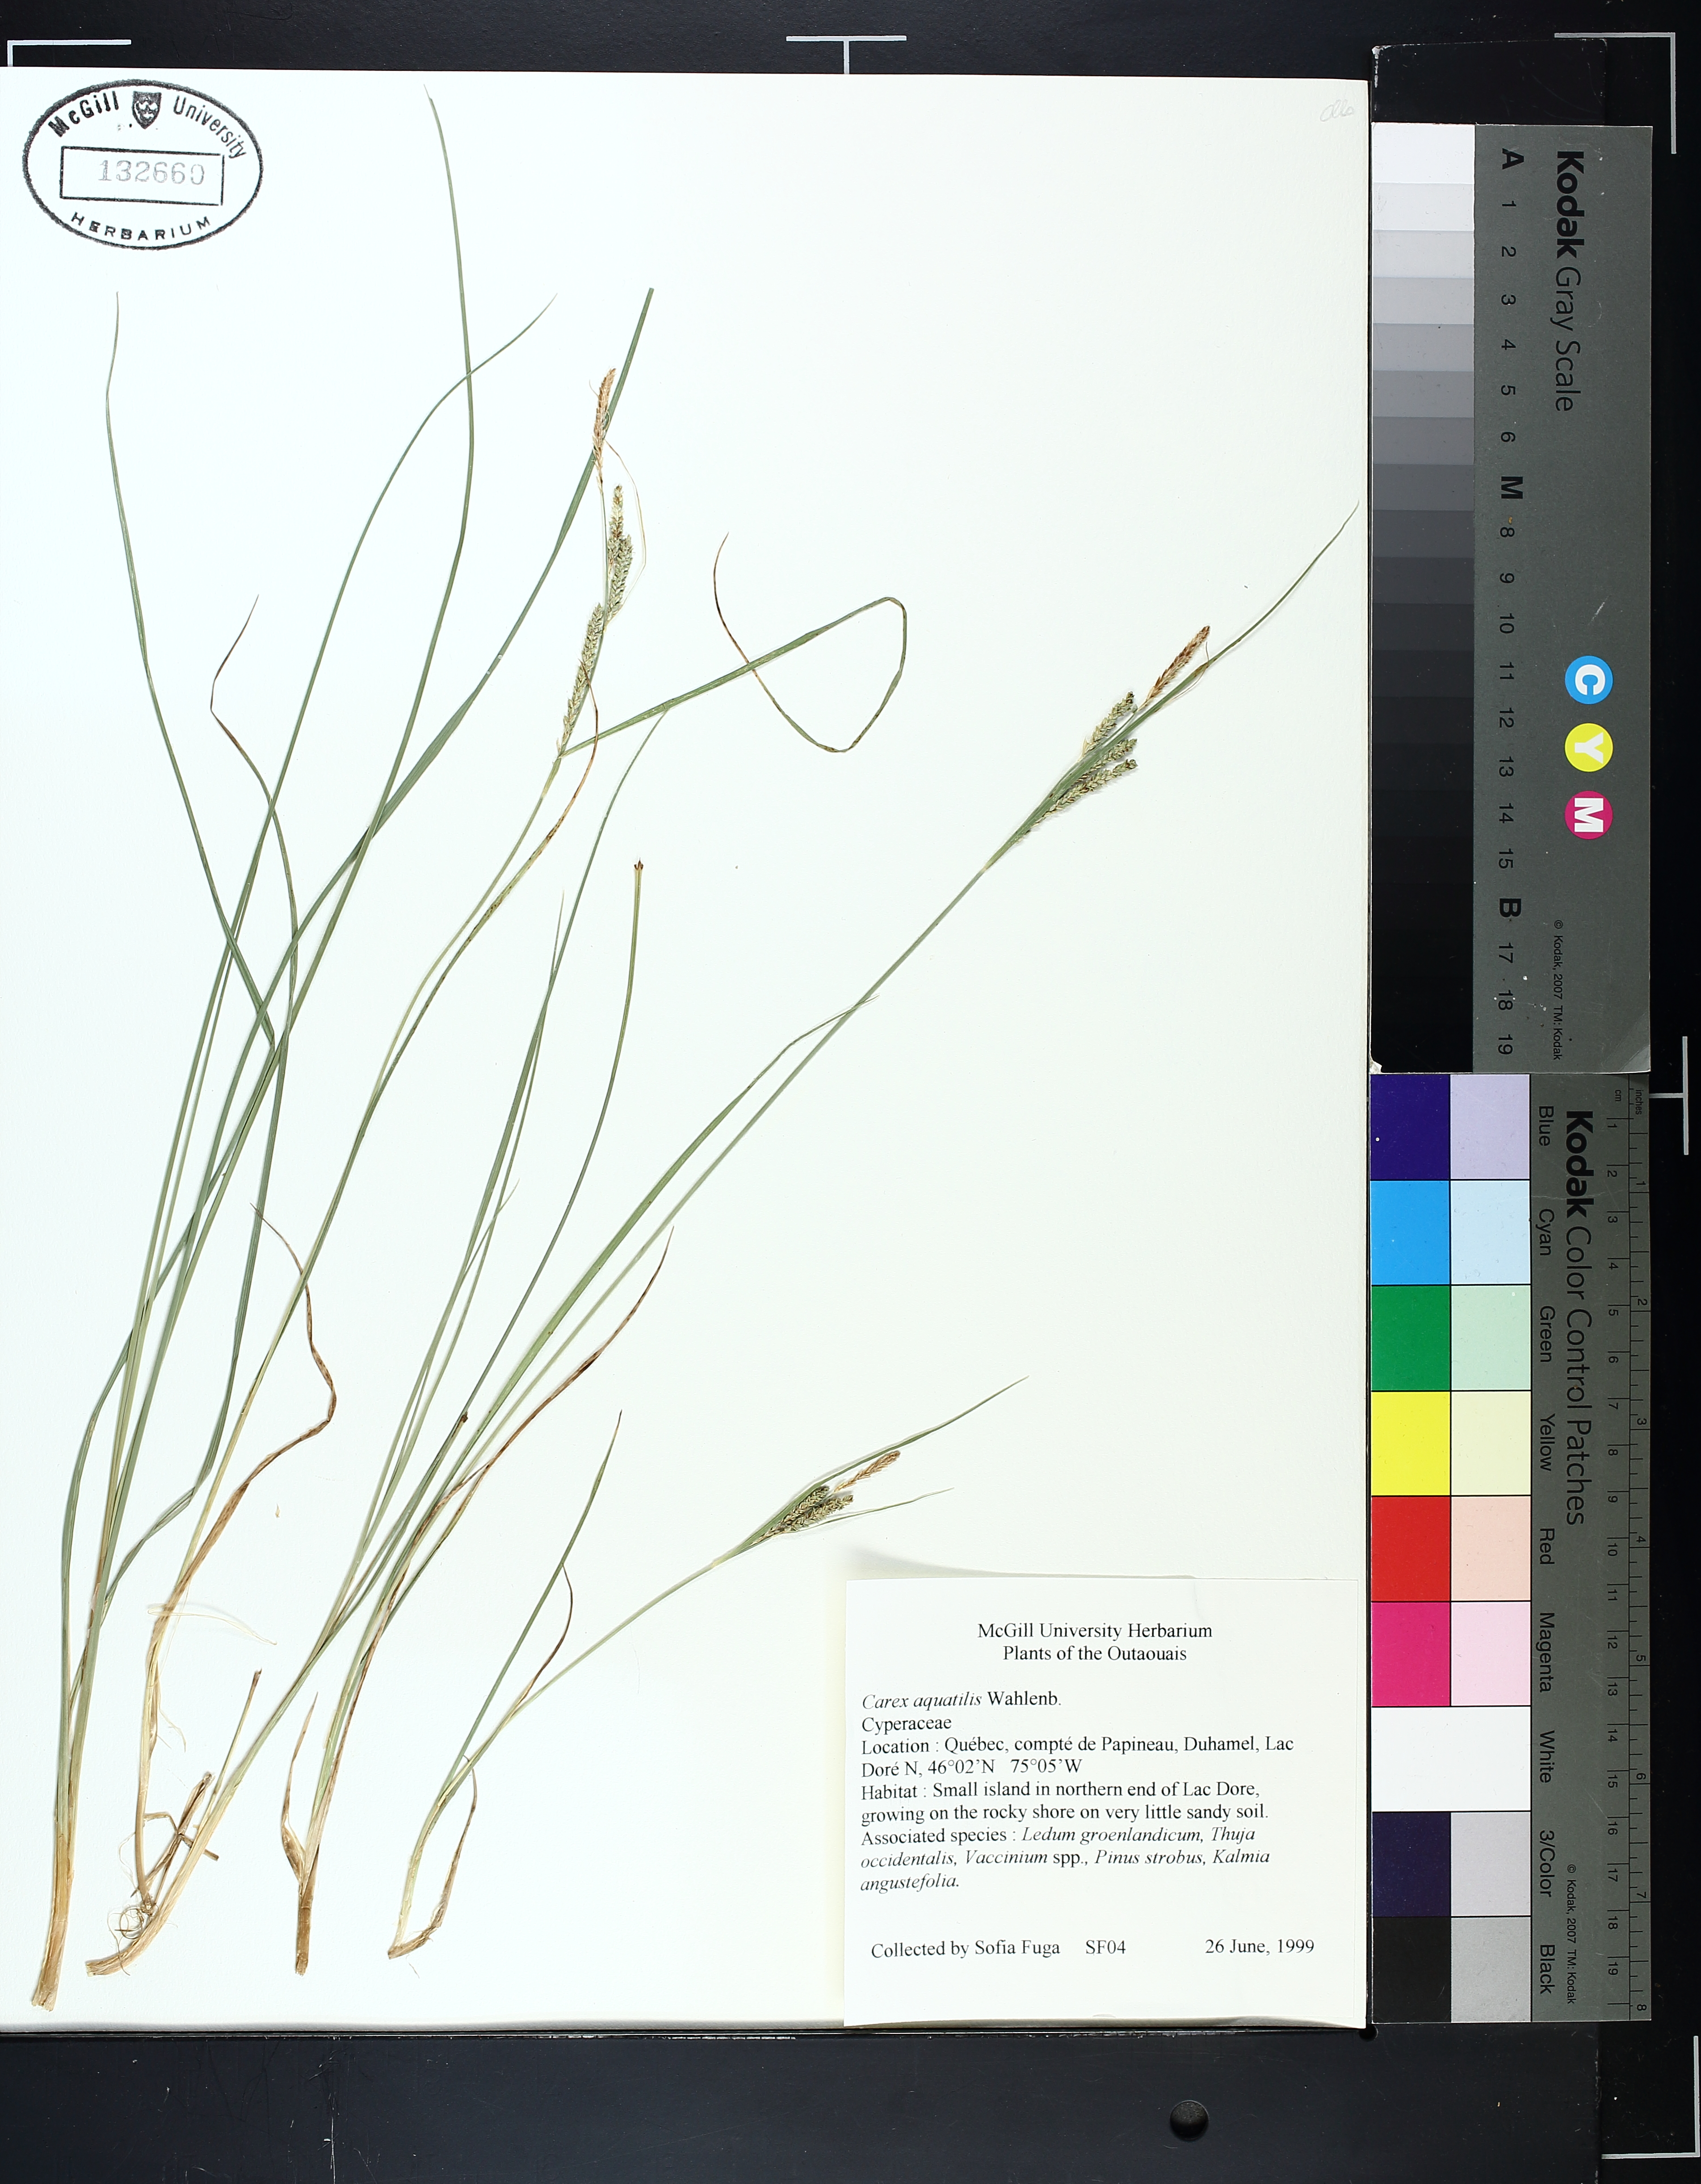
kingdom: Plantae
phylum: Tracheophyta
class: Liliopsida
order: Poales
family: Cyperaceae
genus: Carex
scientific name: Carex aquatilis
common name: Water sedge
